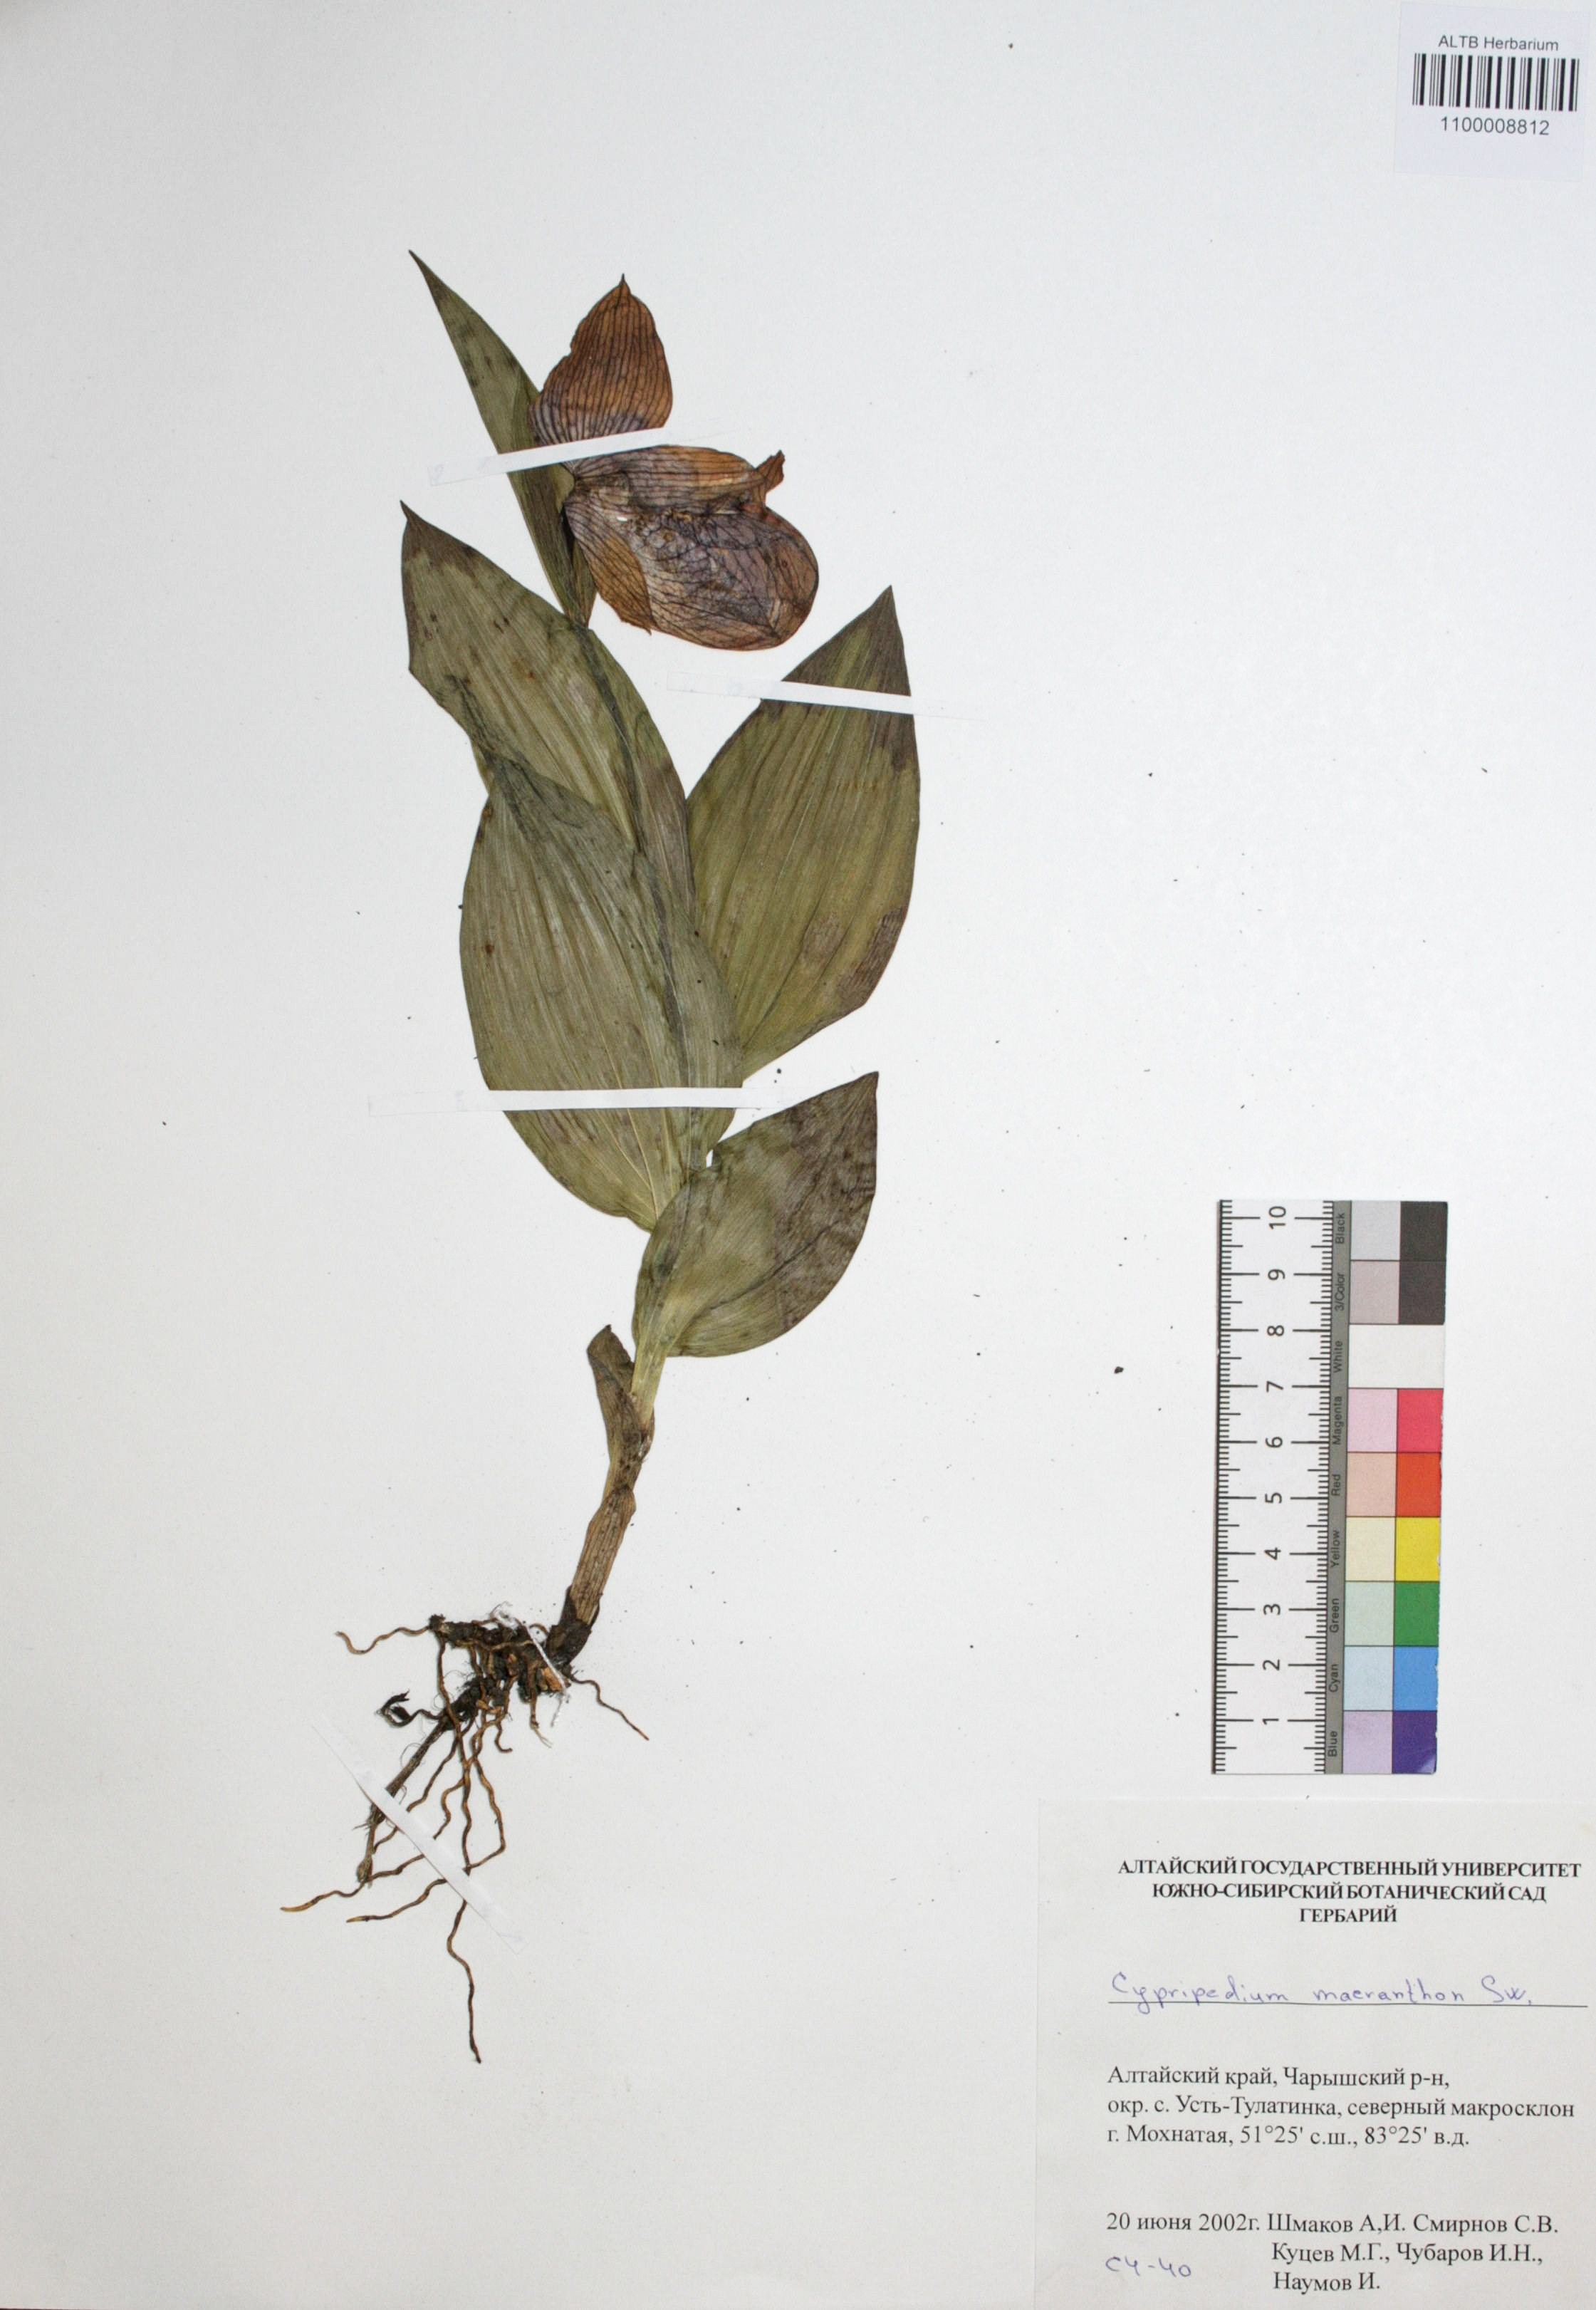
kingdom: Plantae
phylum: Tracheophyta
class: Liliopsida
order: Asparagales
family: Orchidaceae
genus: Cypripedium
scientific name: Cypripedium macranthon
